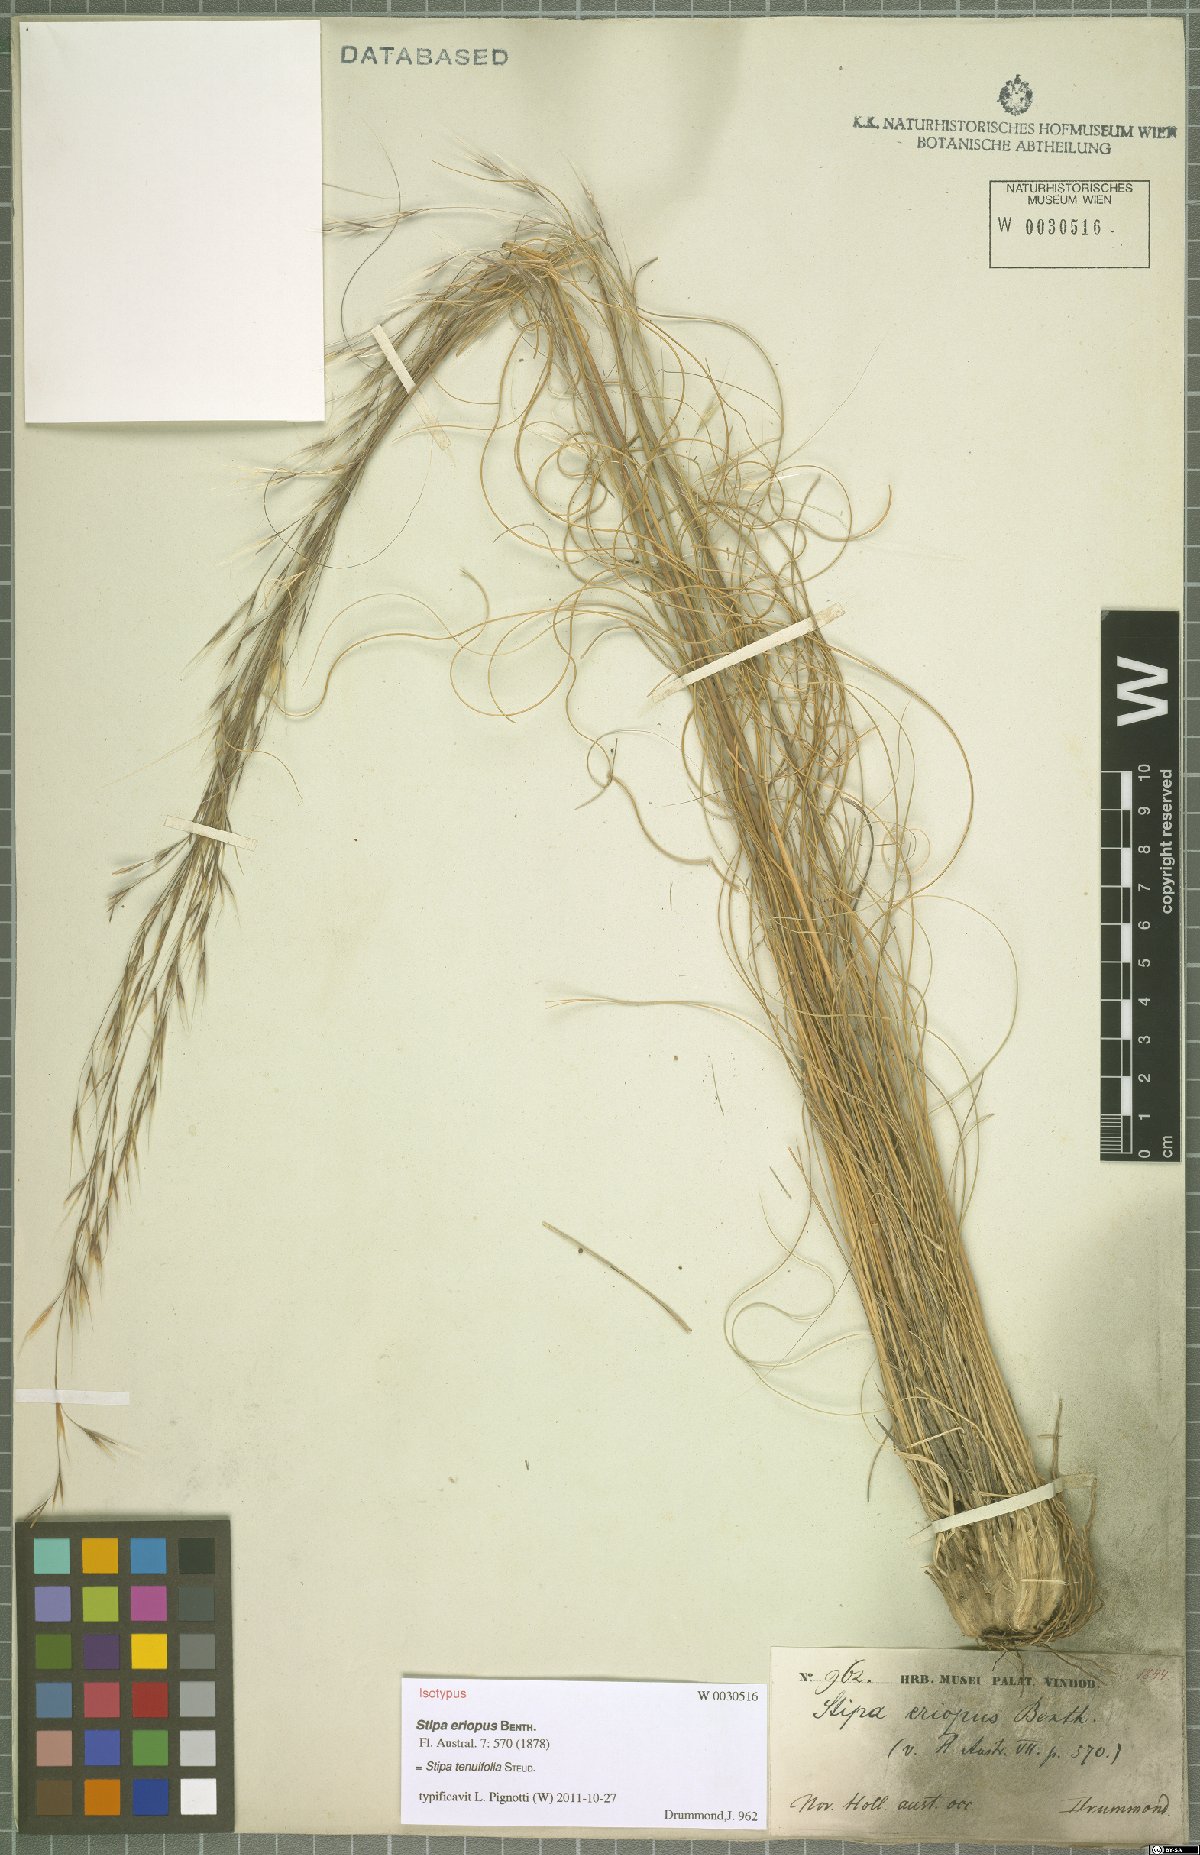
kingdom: Plantae
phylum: Tracheophyta
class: Liliopsida
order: Poales
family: Poaceae
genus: Austrostipa
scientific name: Austrostipa scabra
